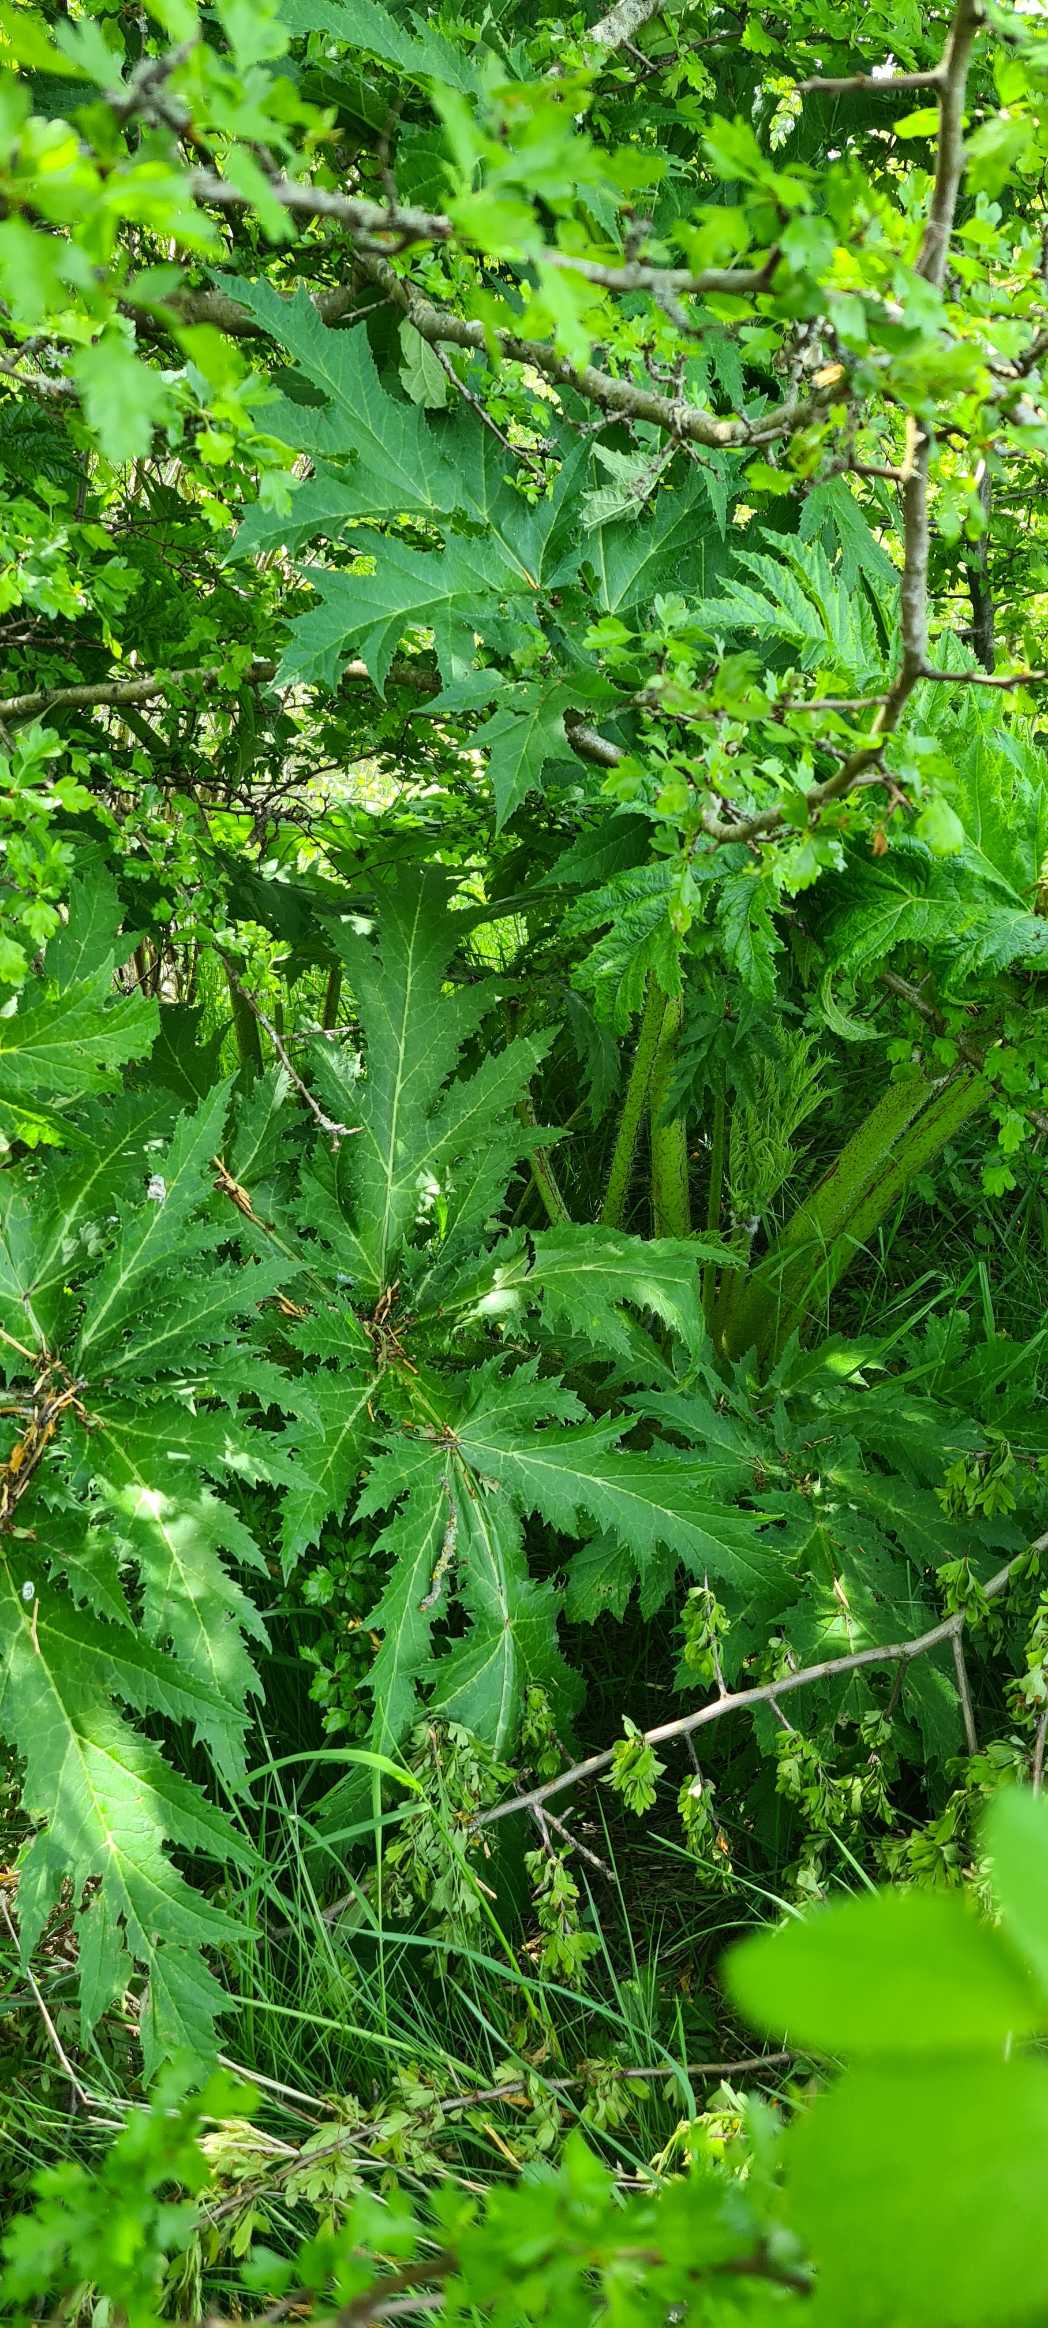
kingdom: Plantae
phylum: Tracheophyta
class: Magnoliopsida
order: Apiales
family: Apiaceae
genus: Heracleum
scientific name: Heracleum mantegazzianum
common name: Kæmpe-bjørneklo
